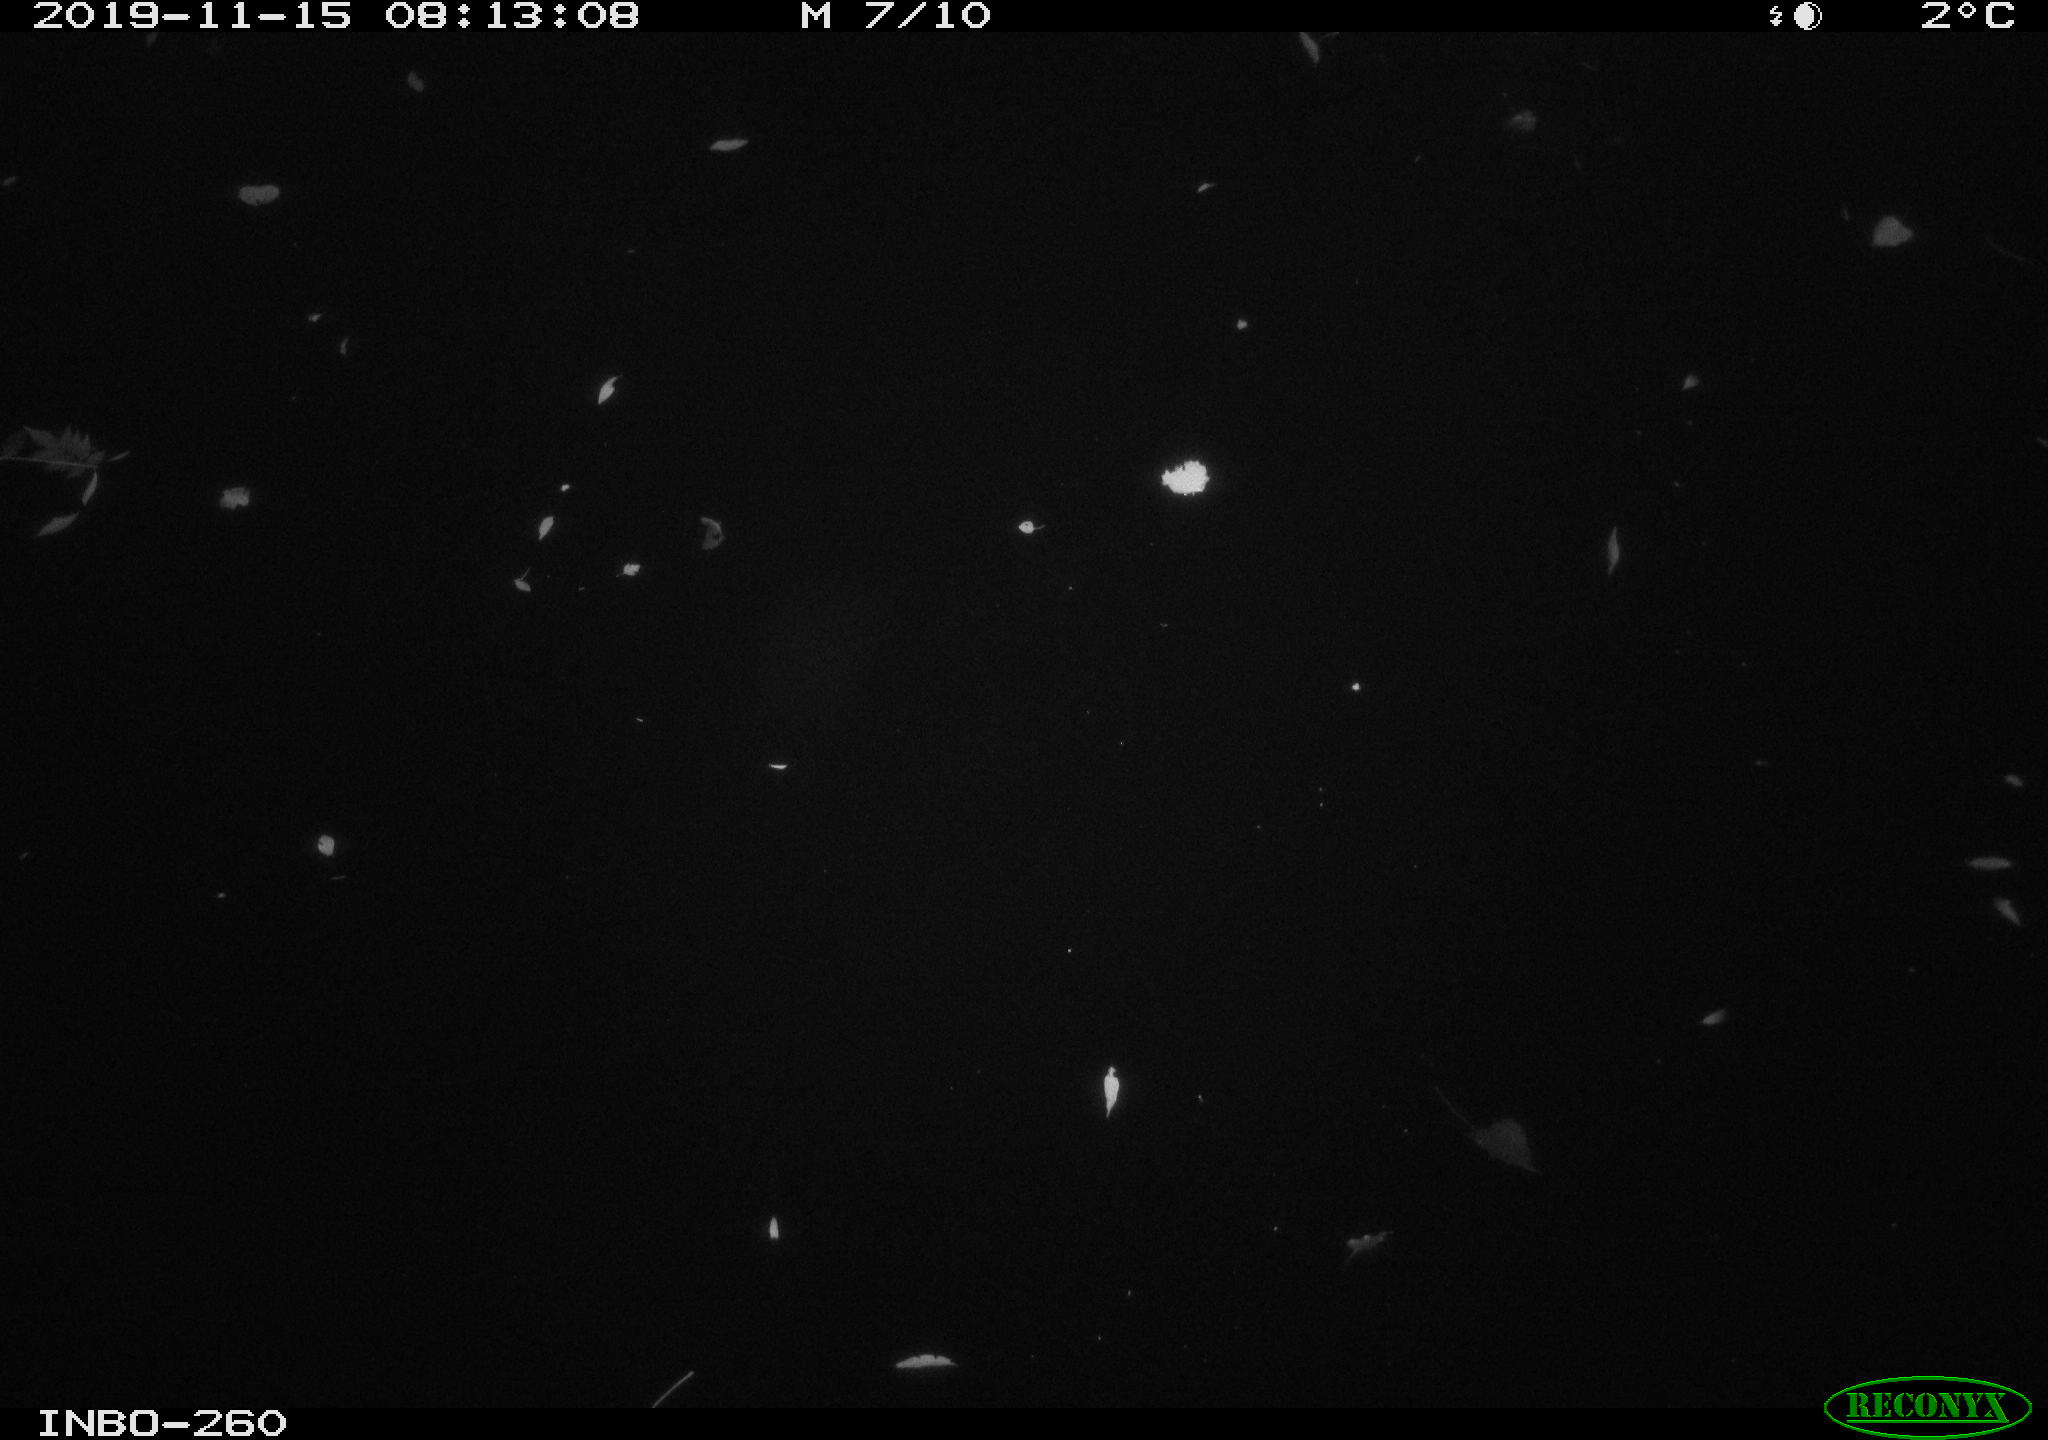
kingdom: Animalia
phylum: Chordata
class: Aves
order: Anseriformes
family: Anatidae
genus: Anas
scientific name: Anas platyrhynchos
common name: Mallard
